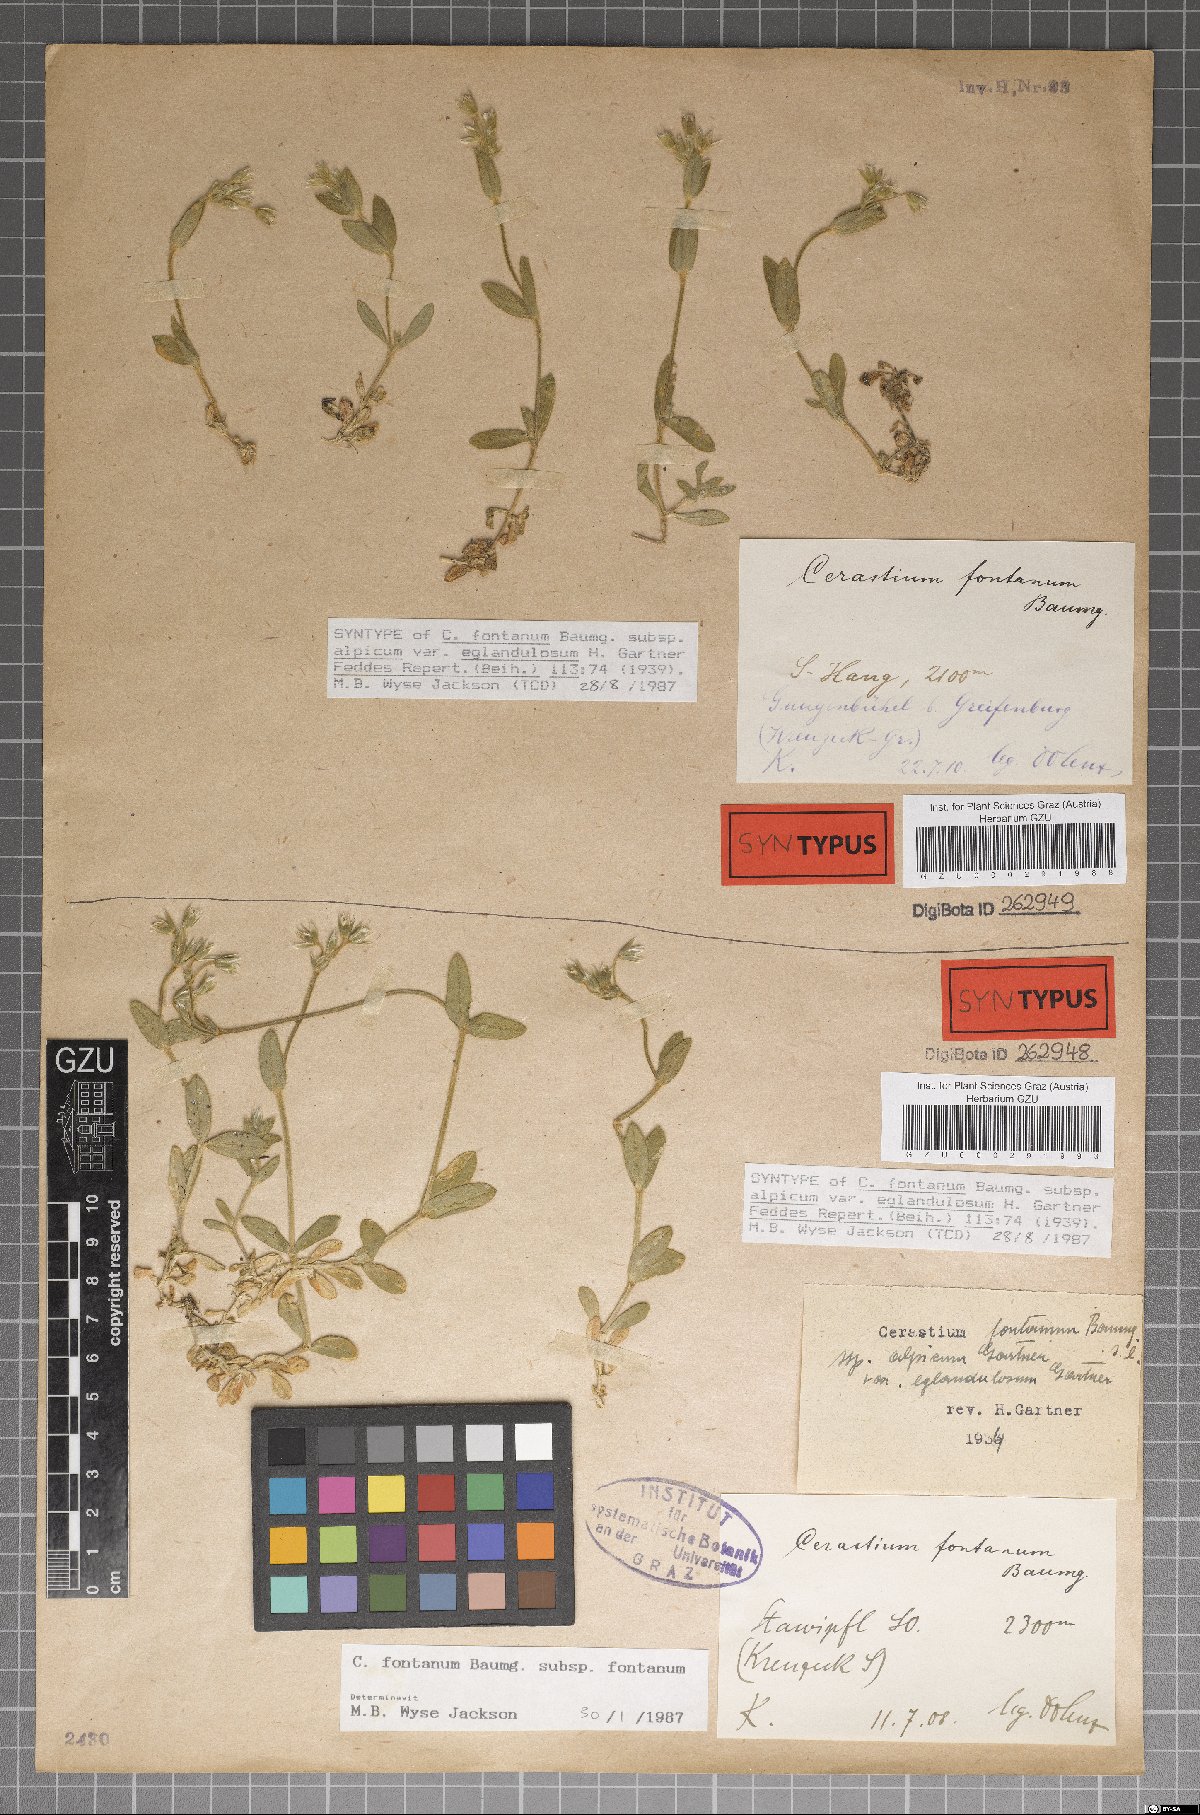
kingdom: Plantae
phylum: Tracheophyta
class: Magnoliopsida
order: Caryophyllales
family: Caryophyllaceae
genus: Cerastium
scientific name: Cerastium holosteoides
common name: Big chickweed
